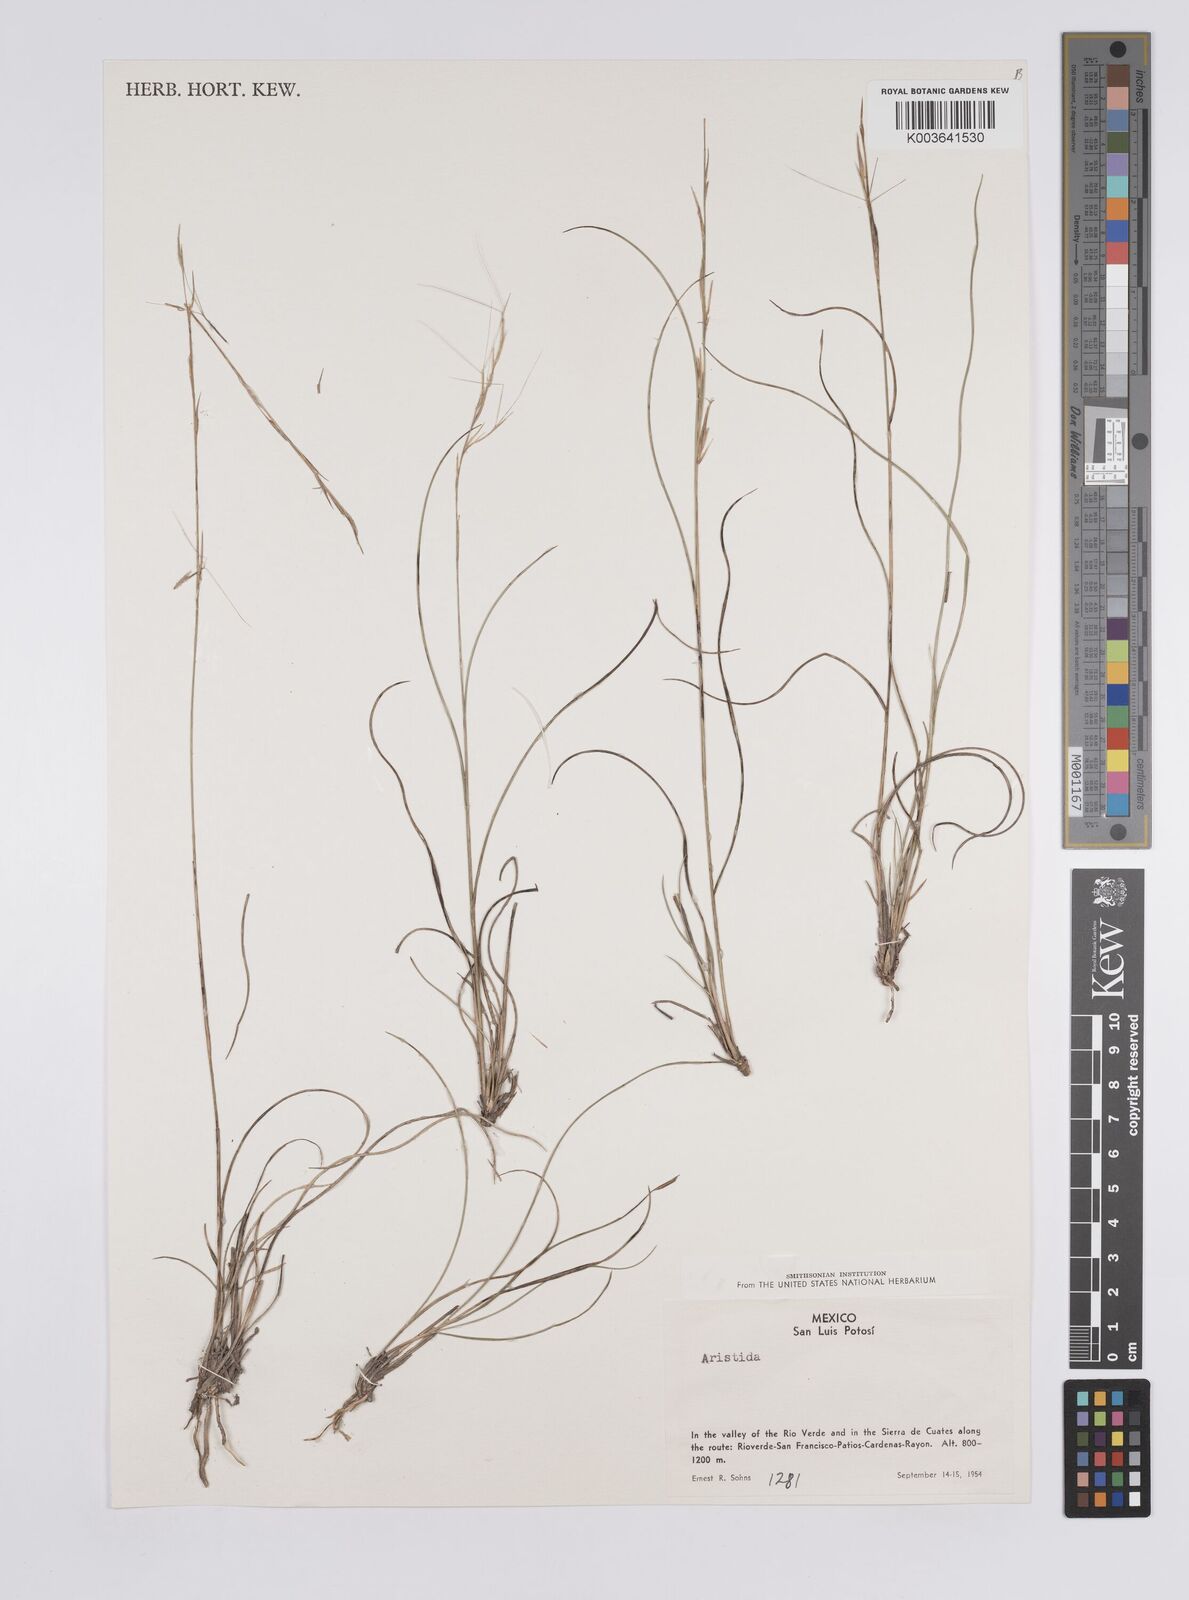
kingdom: Plantae
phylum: Tracheophyta
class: Liliopsida
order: Poales
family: Poaceae
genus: Aristida
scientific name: Aristida
